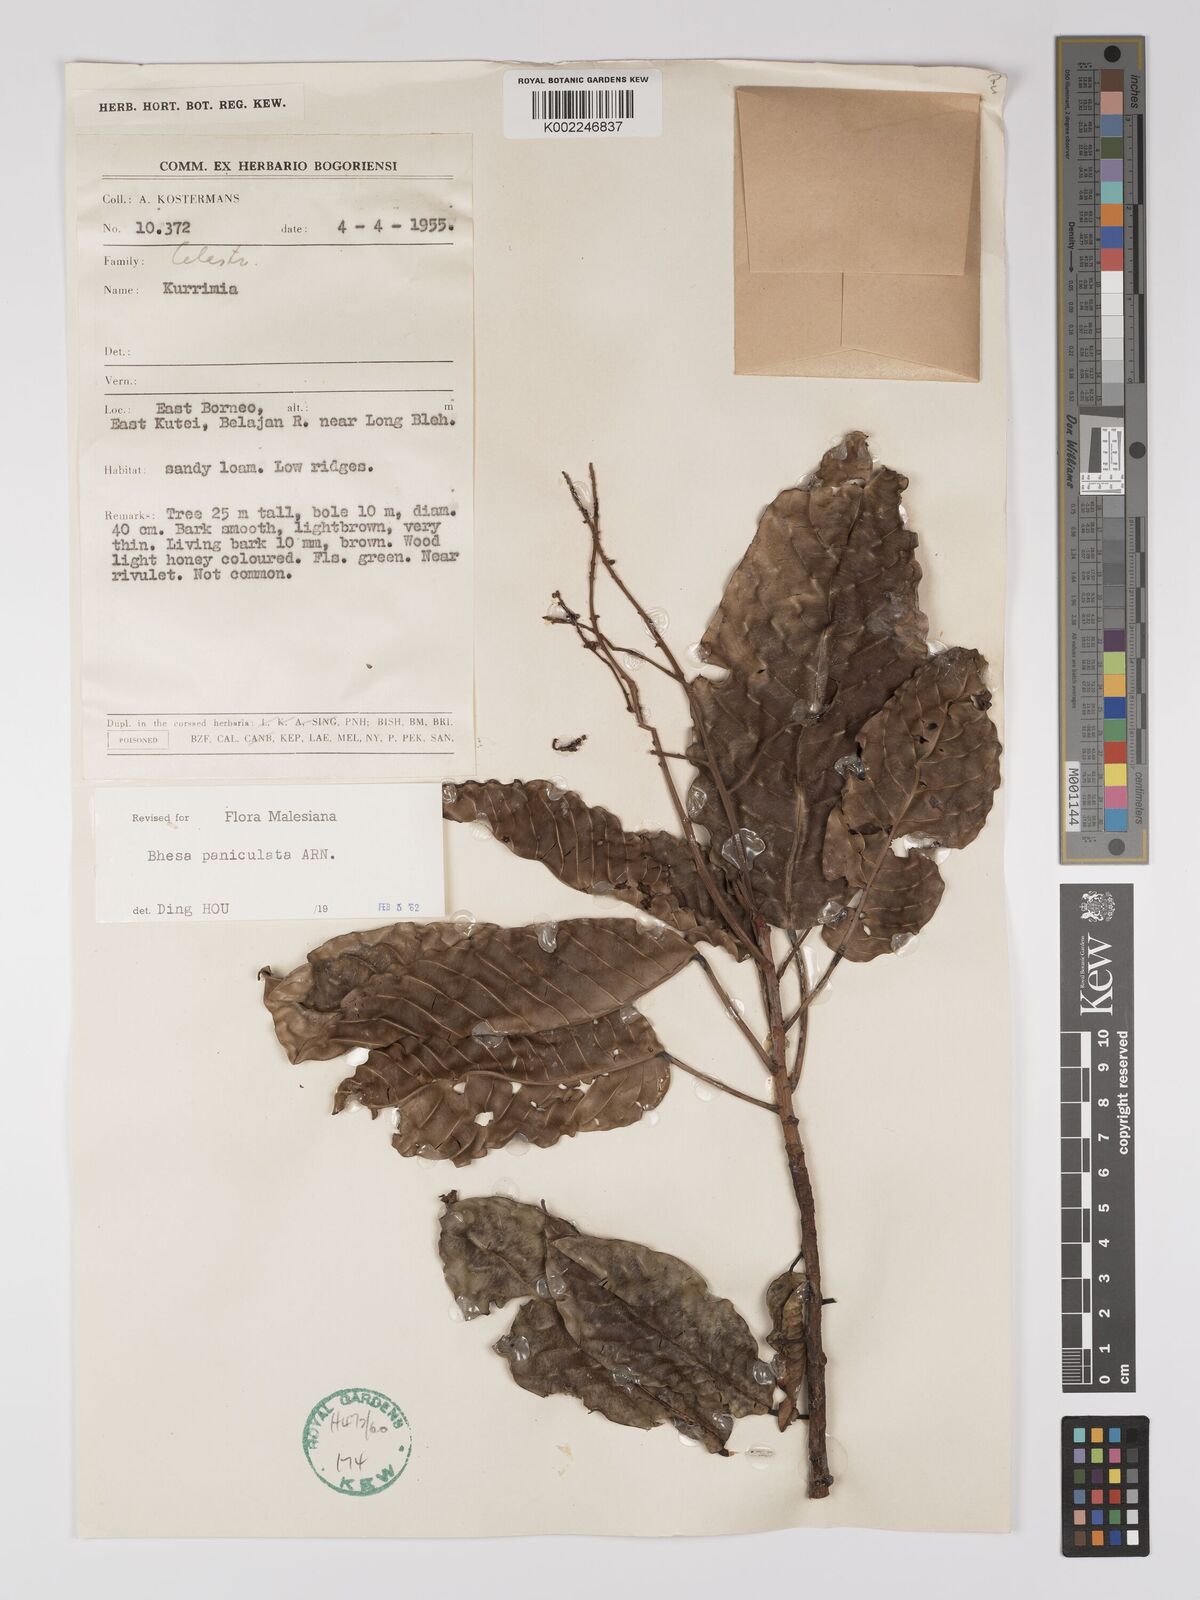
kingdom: Plantae
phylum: Tracheophyta
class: Magnoliopsida
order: Malpighiales
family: Centroplacaceae
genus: Bhesa
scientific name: Bhesa paniculata
